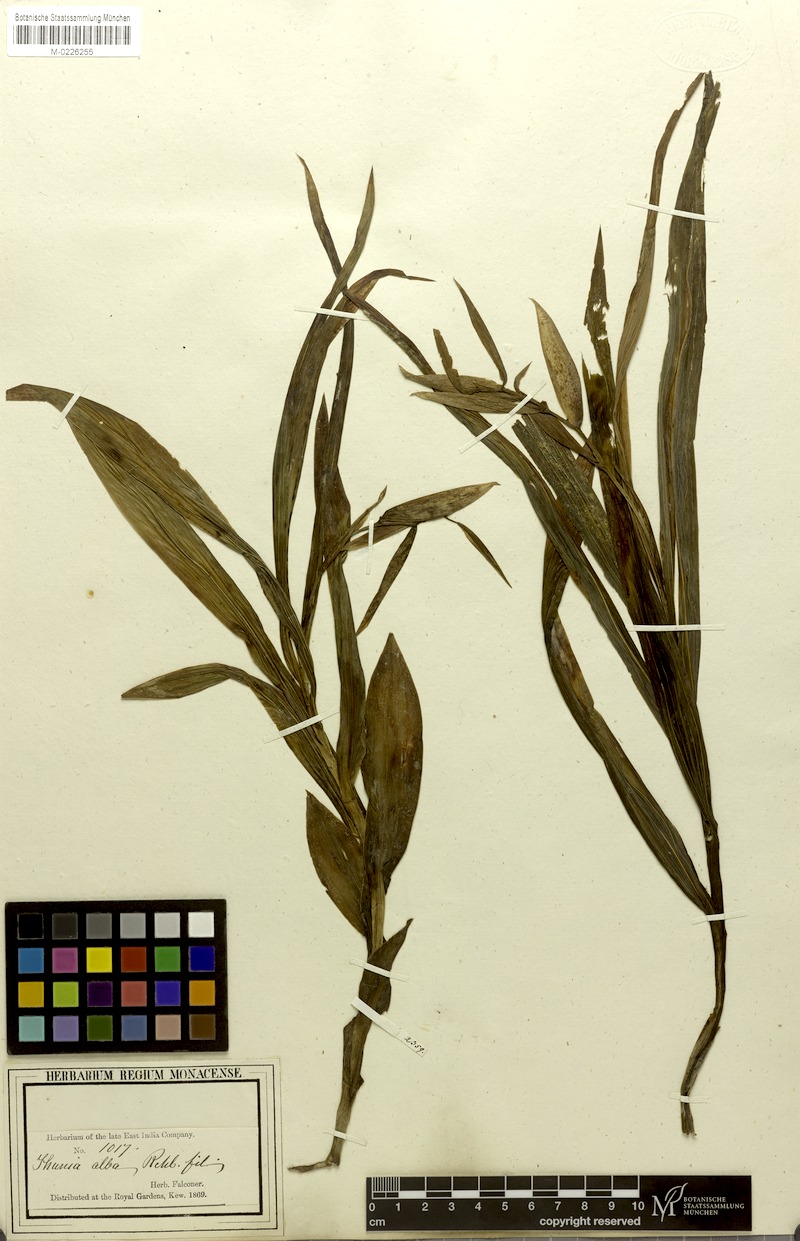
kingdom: Plantae
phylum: Tracheophyta
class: Liliopsida
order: Asparagales
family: Orchidaceae
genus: Thunia
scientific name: Thunia alba
